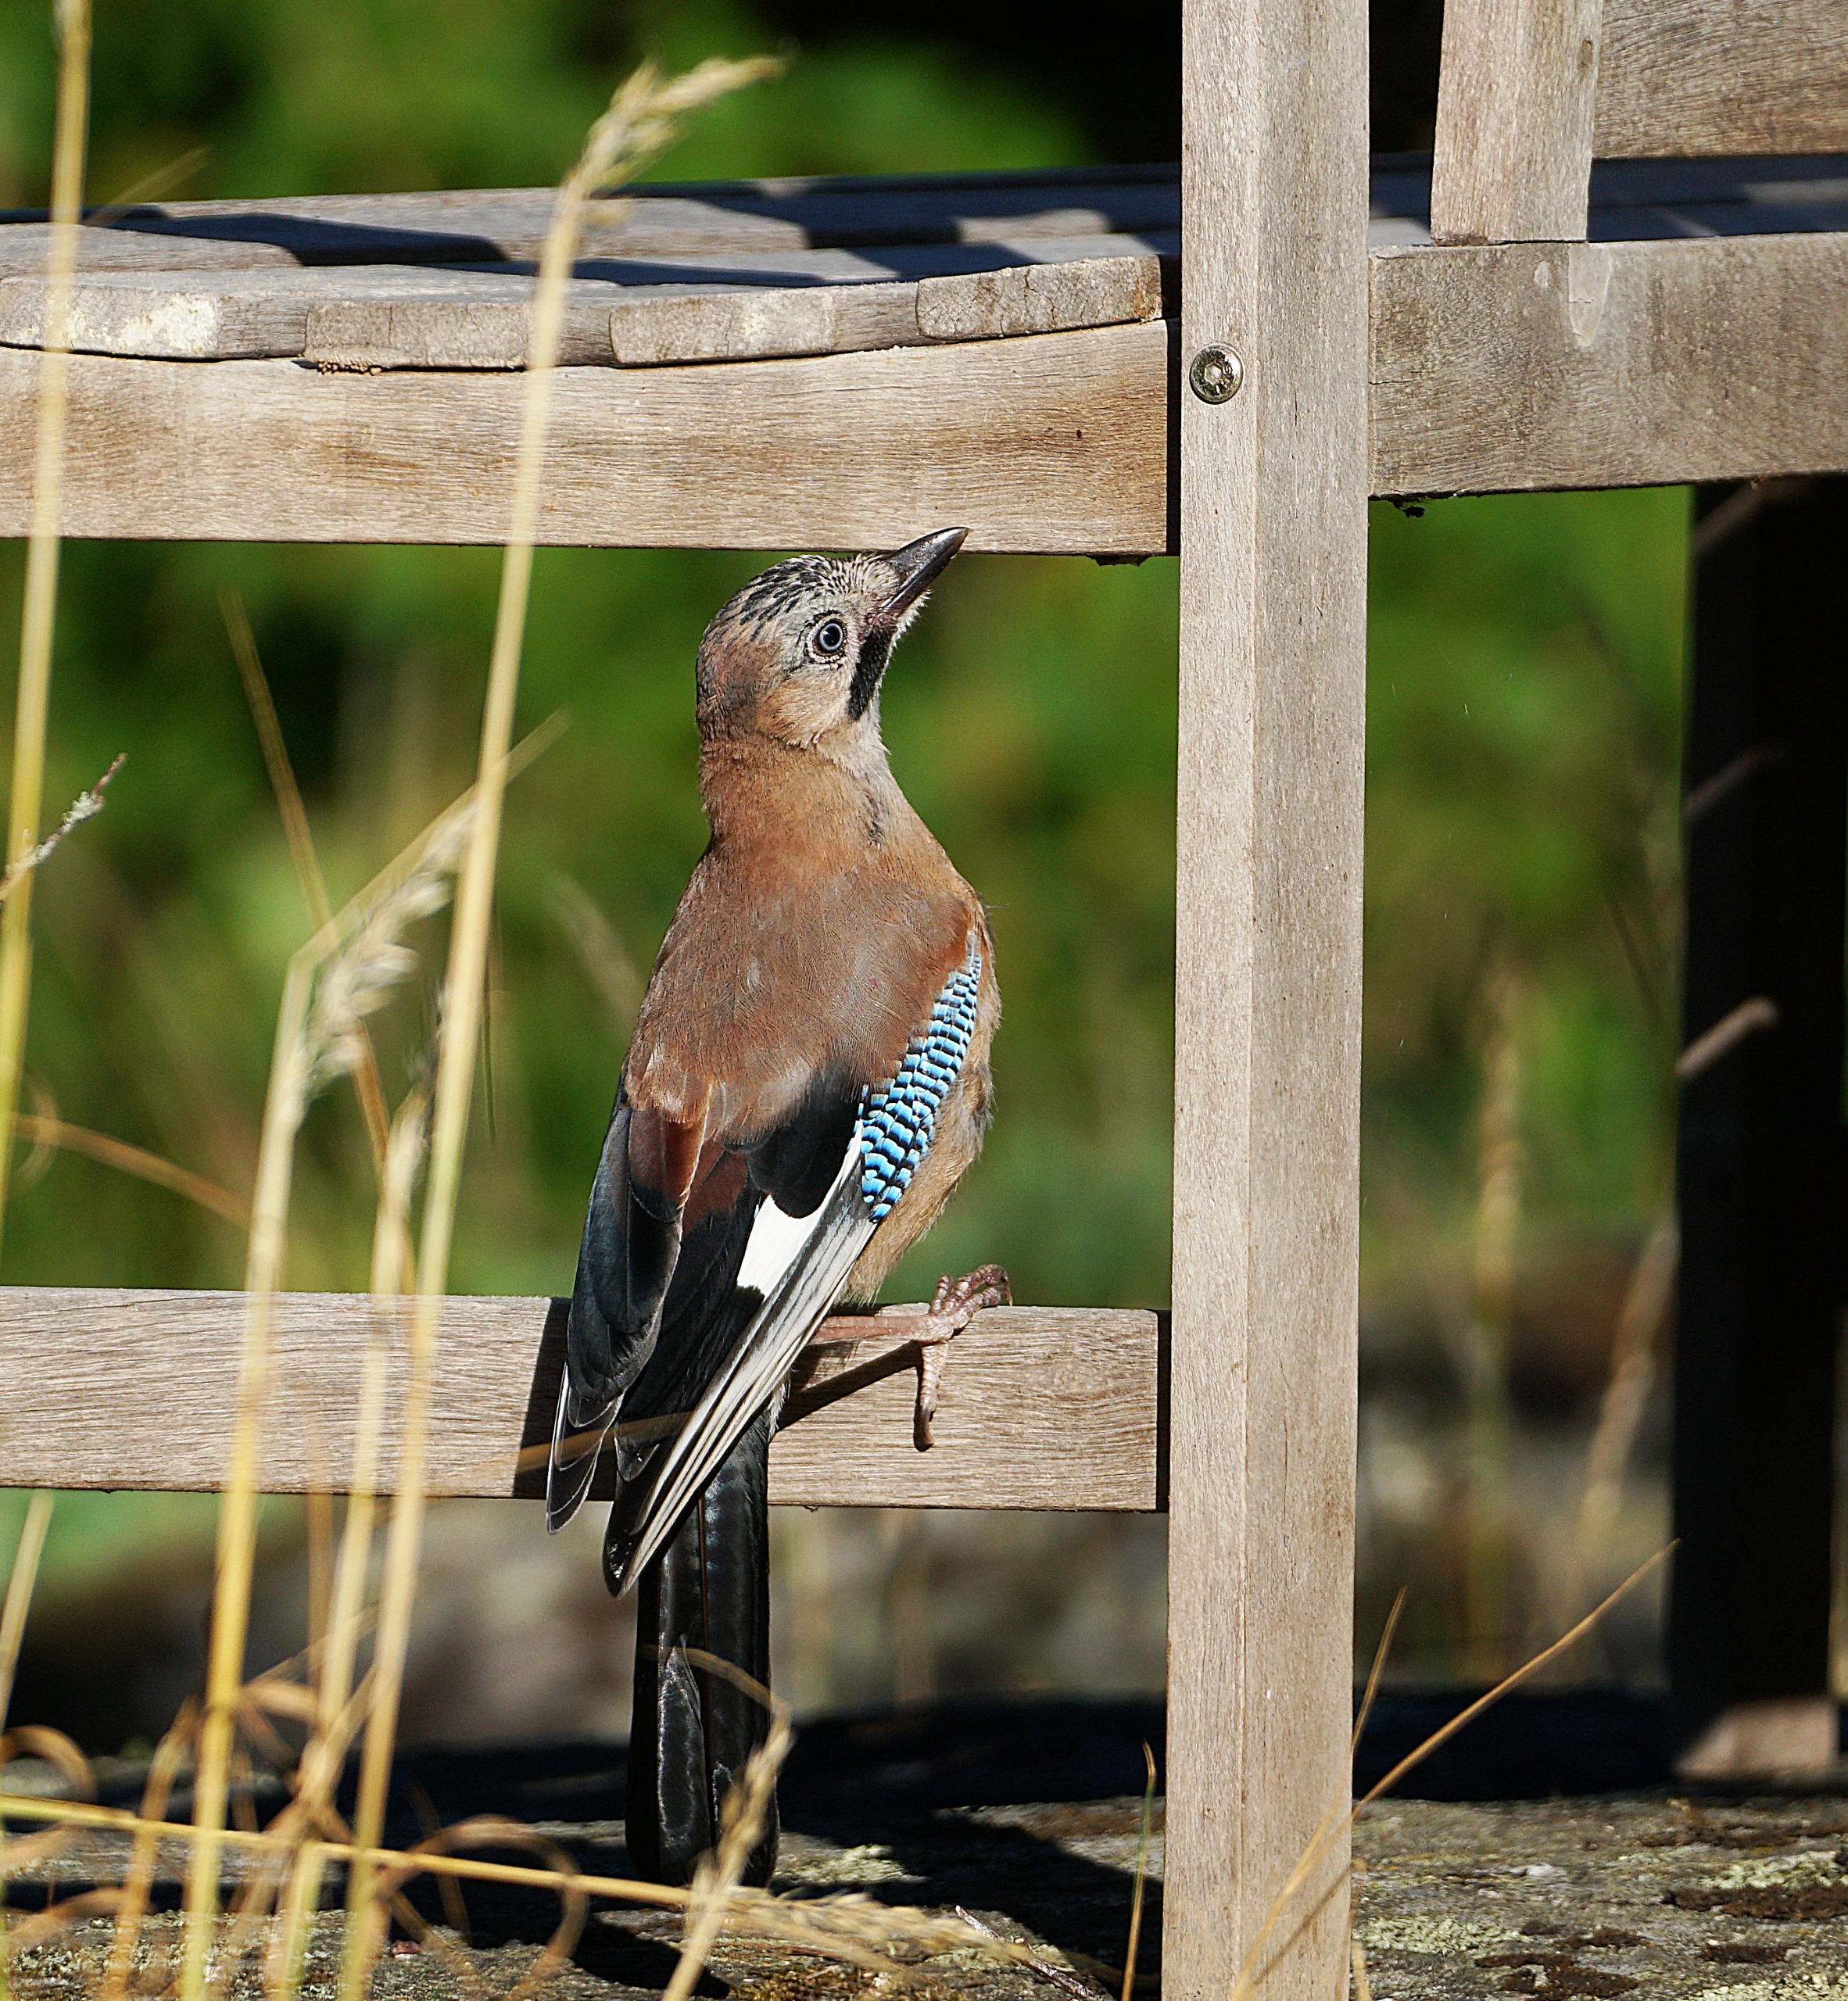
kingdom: Animalia
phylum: Chordata
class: Aves
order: Passeriformes
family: Corvidae
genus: Garrulus
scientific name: Garrulus glandarius
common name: Skovskade
